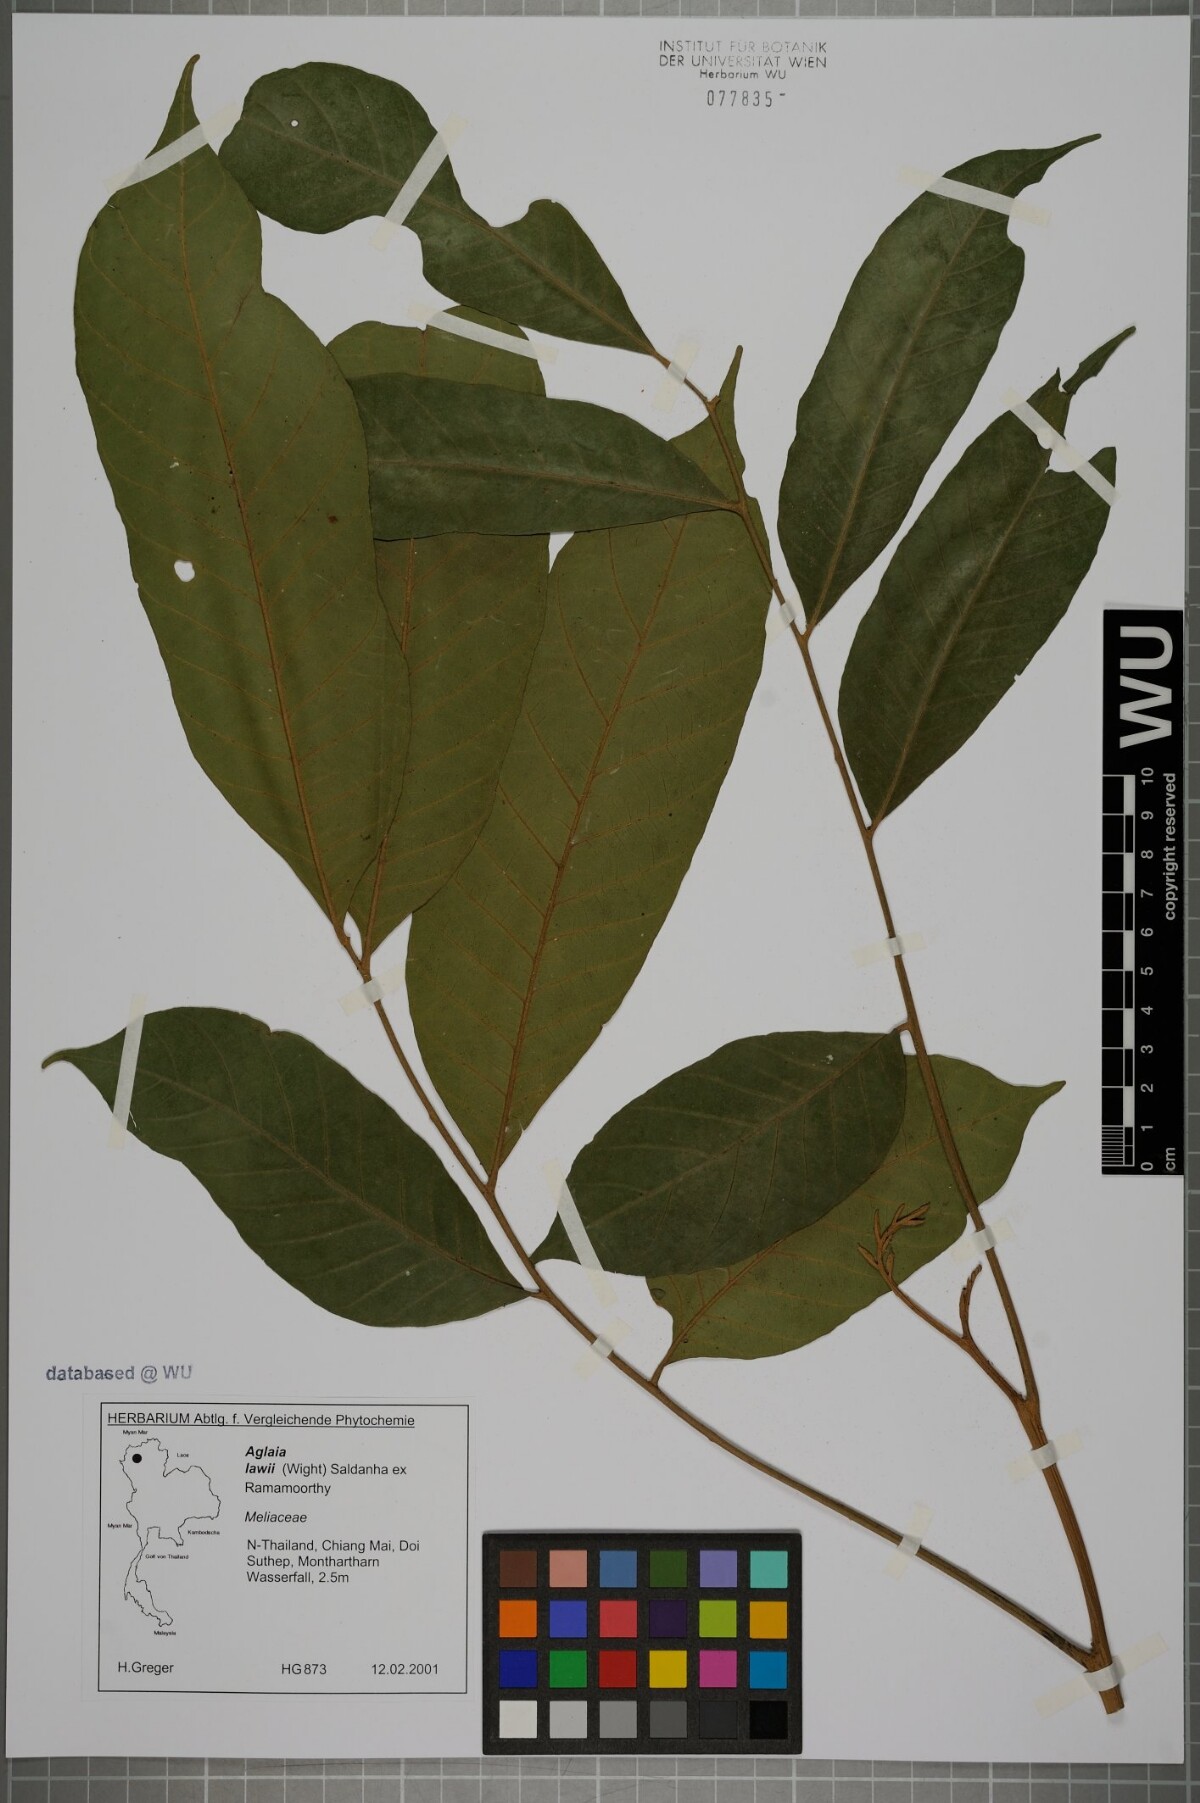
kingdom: Plantae
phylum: Tracheophyta
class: Magnoliopsida
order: Sapindales
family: Meliaceae
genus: Aglaia
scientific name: Aglaia lawii
